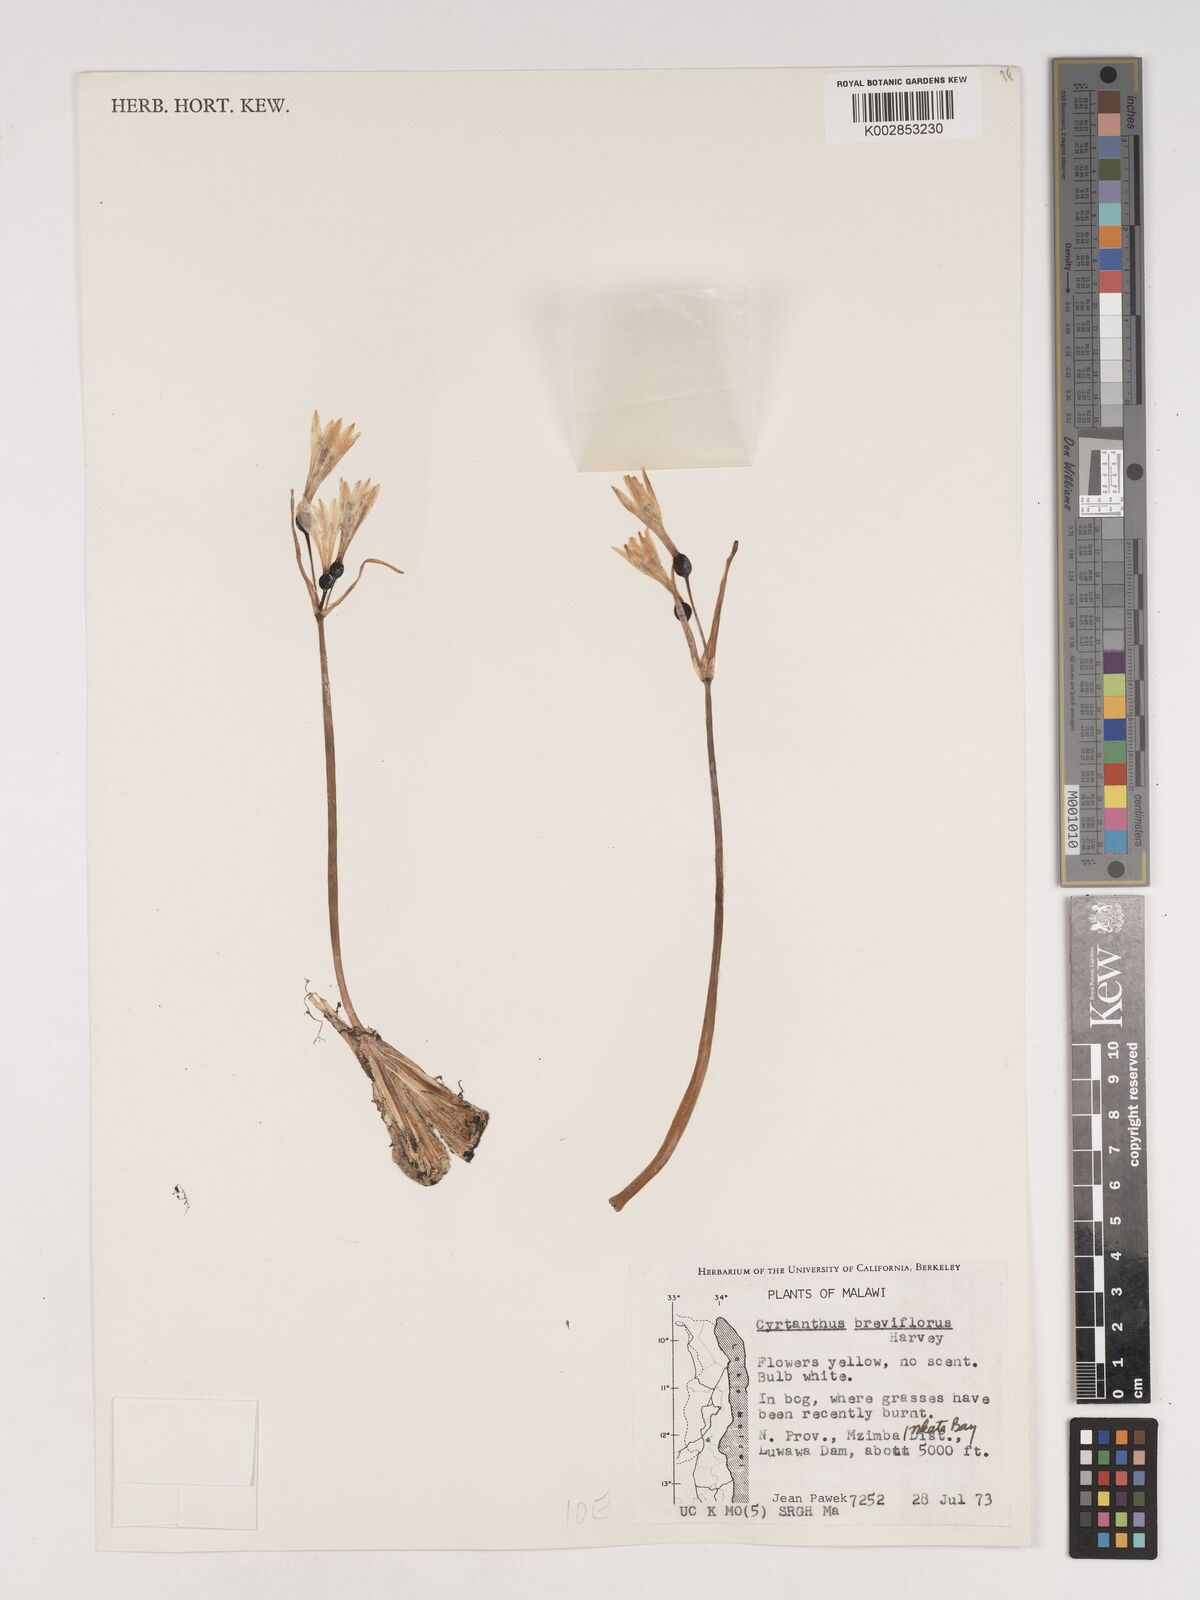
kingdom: Plantae
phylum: Tracheophyta
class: Liliopsida
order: Asparagales
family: Amaryllidaceae
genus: Cyrtanthus
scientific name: Cyrtanthus breviflorus
